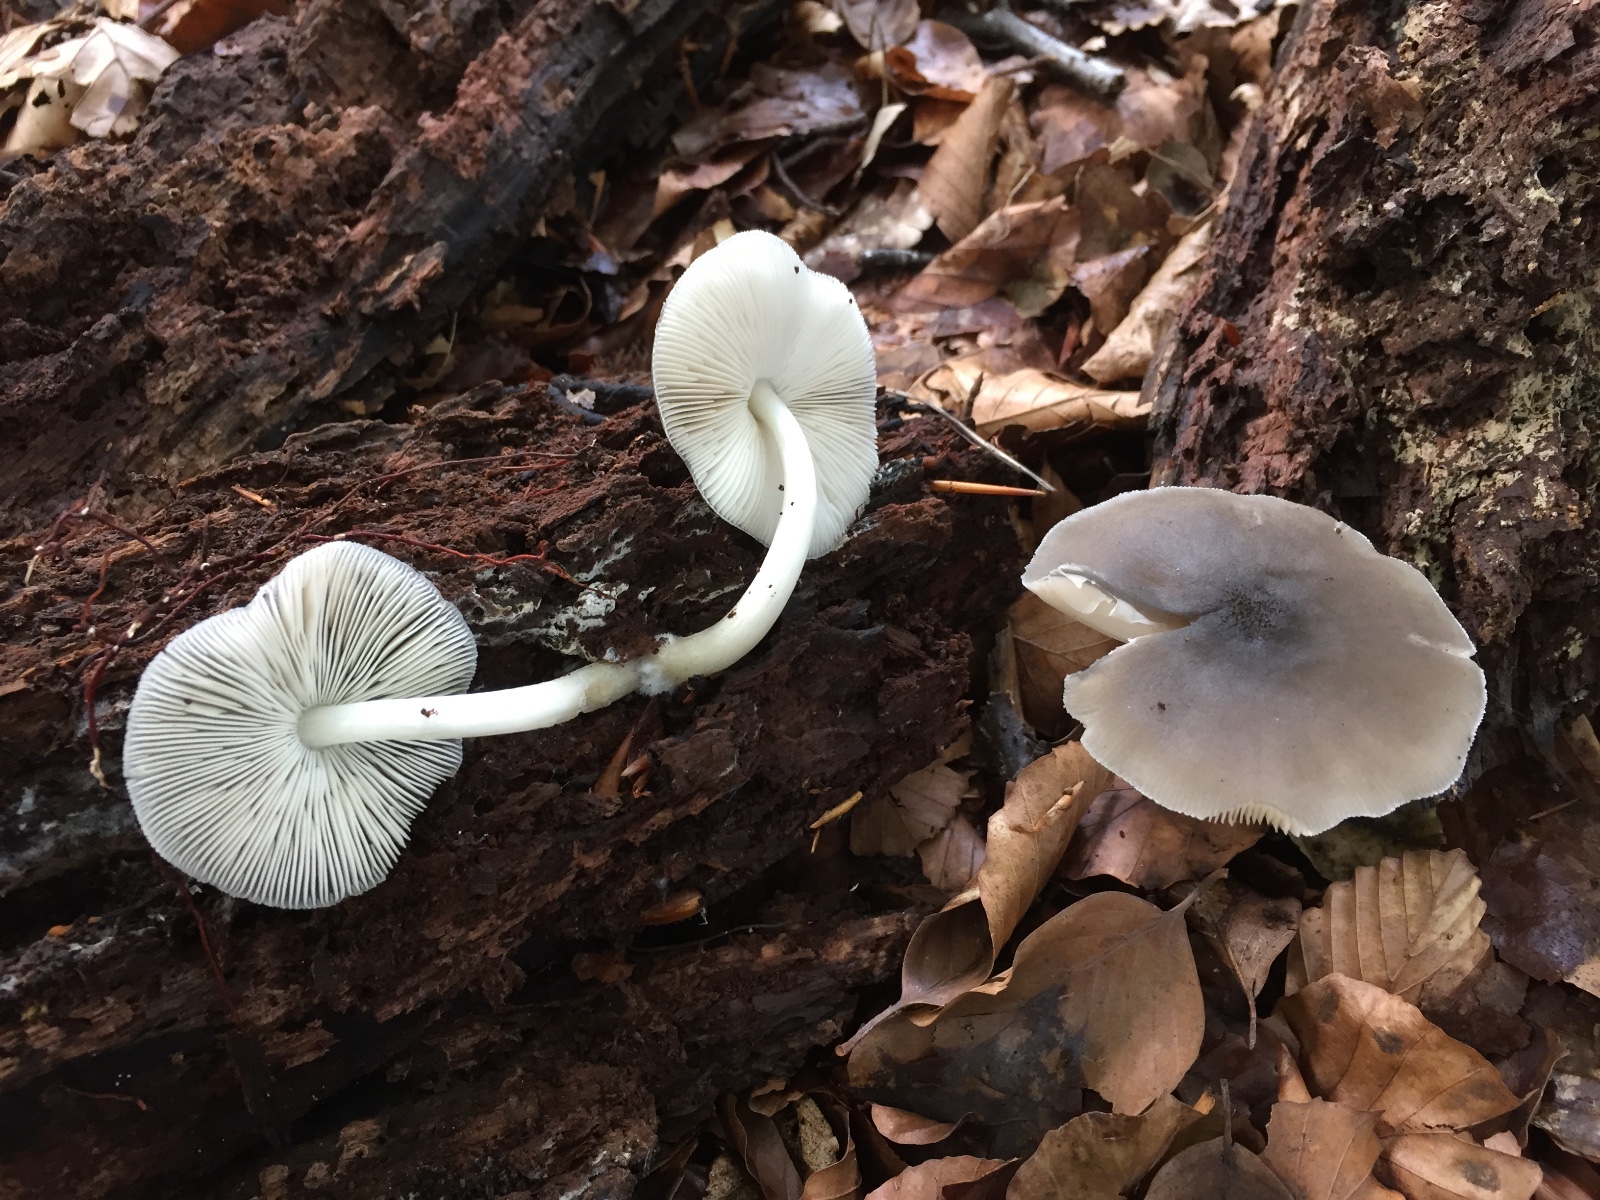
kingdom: Fungi
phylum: Basidiomycota
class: Agaricomycetes
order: Agaricales
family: Pluteaceae
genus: Pluteus
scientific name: Pluteus salicinus
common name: stiv skærmhat
